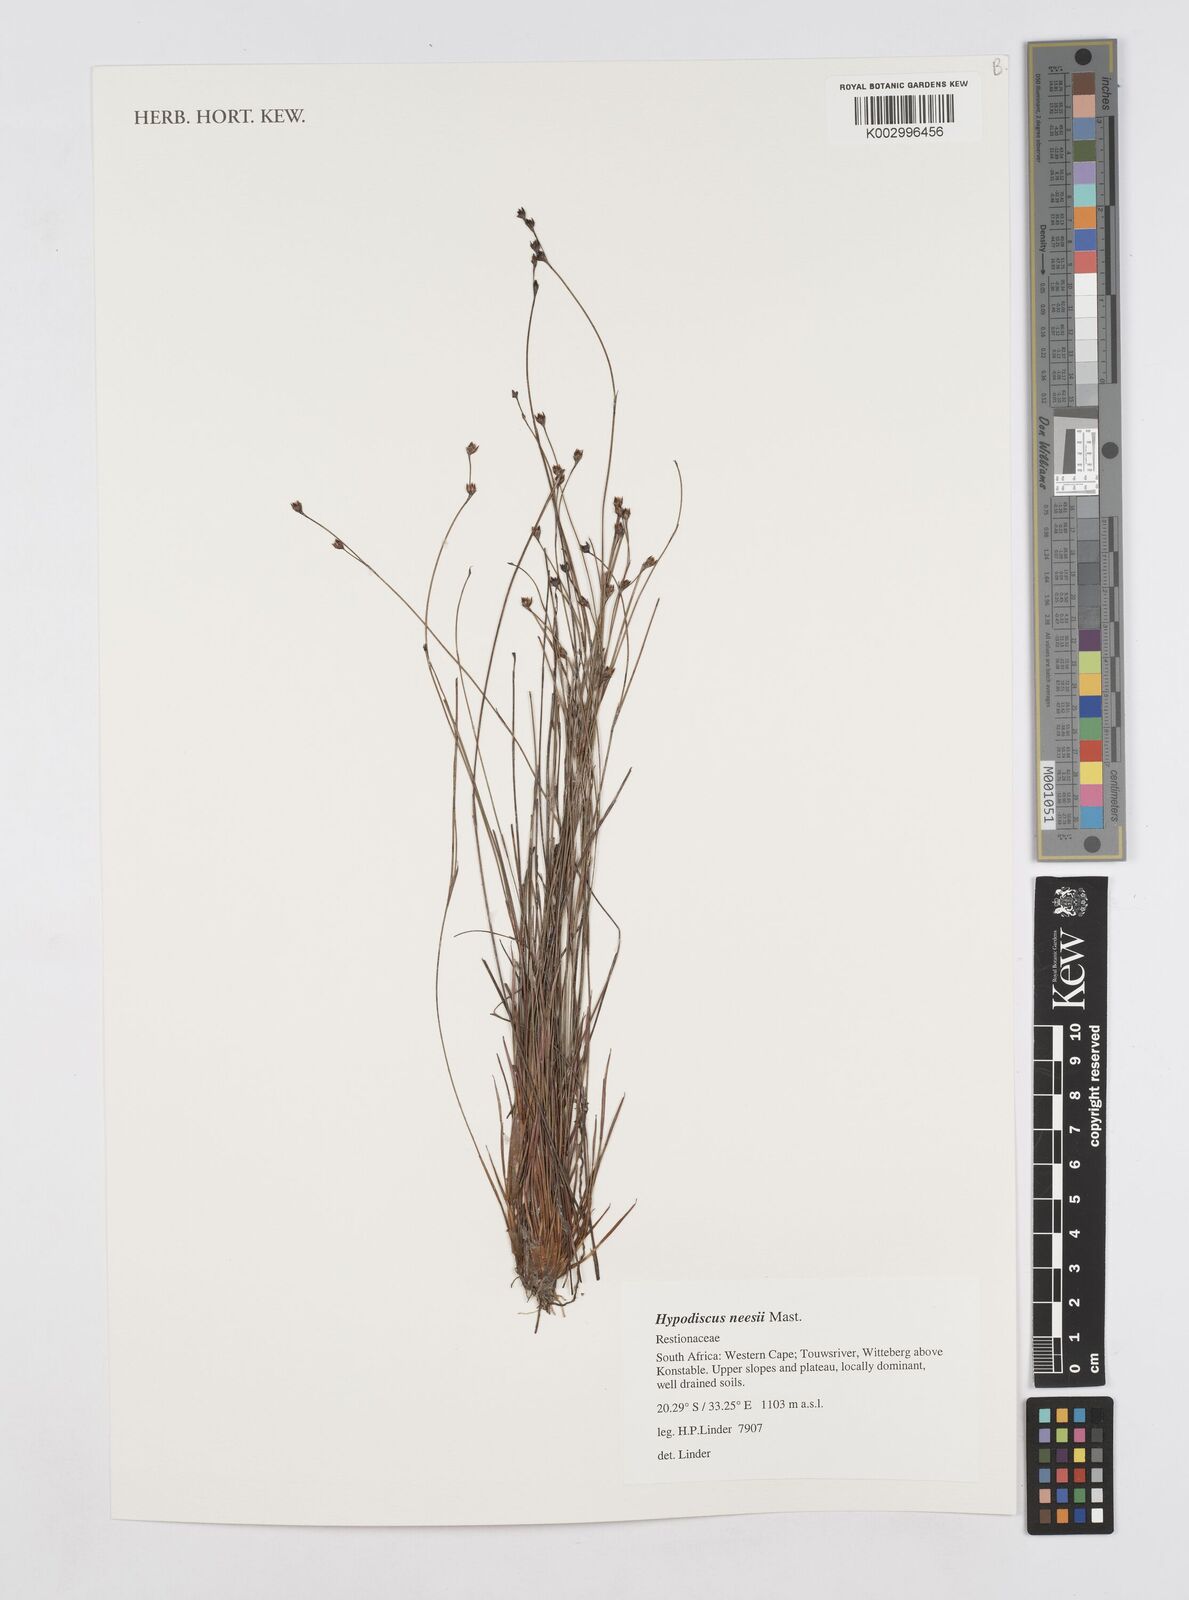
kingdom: Plantae
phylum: Tracheophyta
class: Liliopsida
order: Poales
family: Restionaceae
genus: Hypodiscus
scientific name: Hypodiscus neesii
